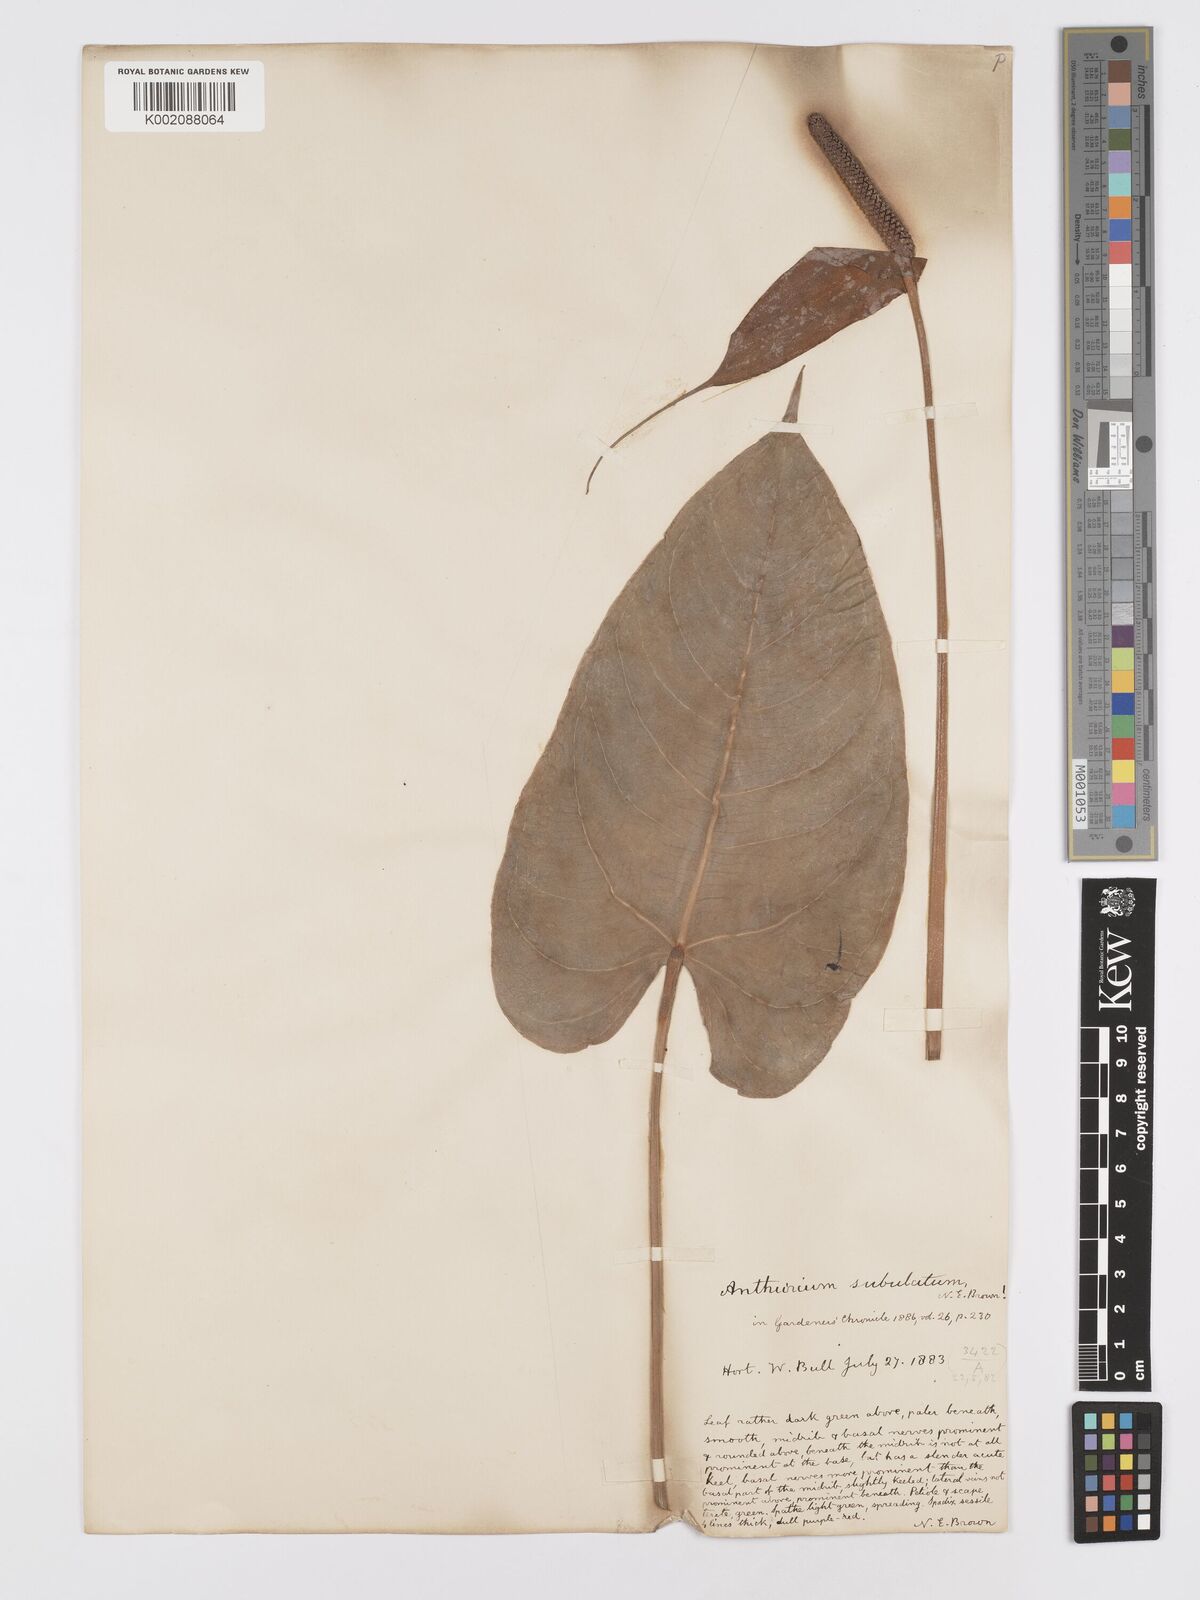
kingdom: Plantae
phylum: Tracheophyta
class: Liliopsida
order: Alismatales
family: Araceae
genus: Anthurium
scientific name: Anthurium subulatum
